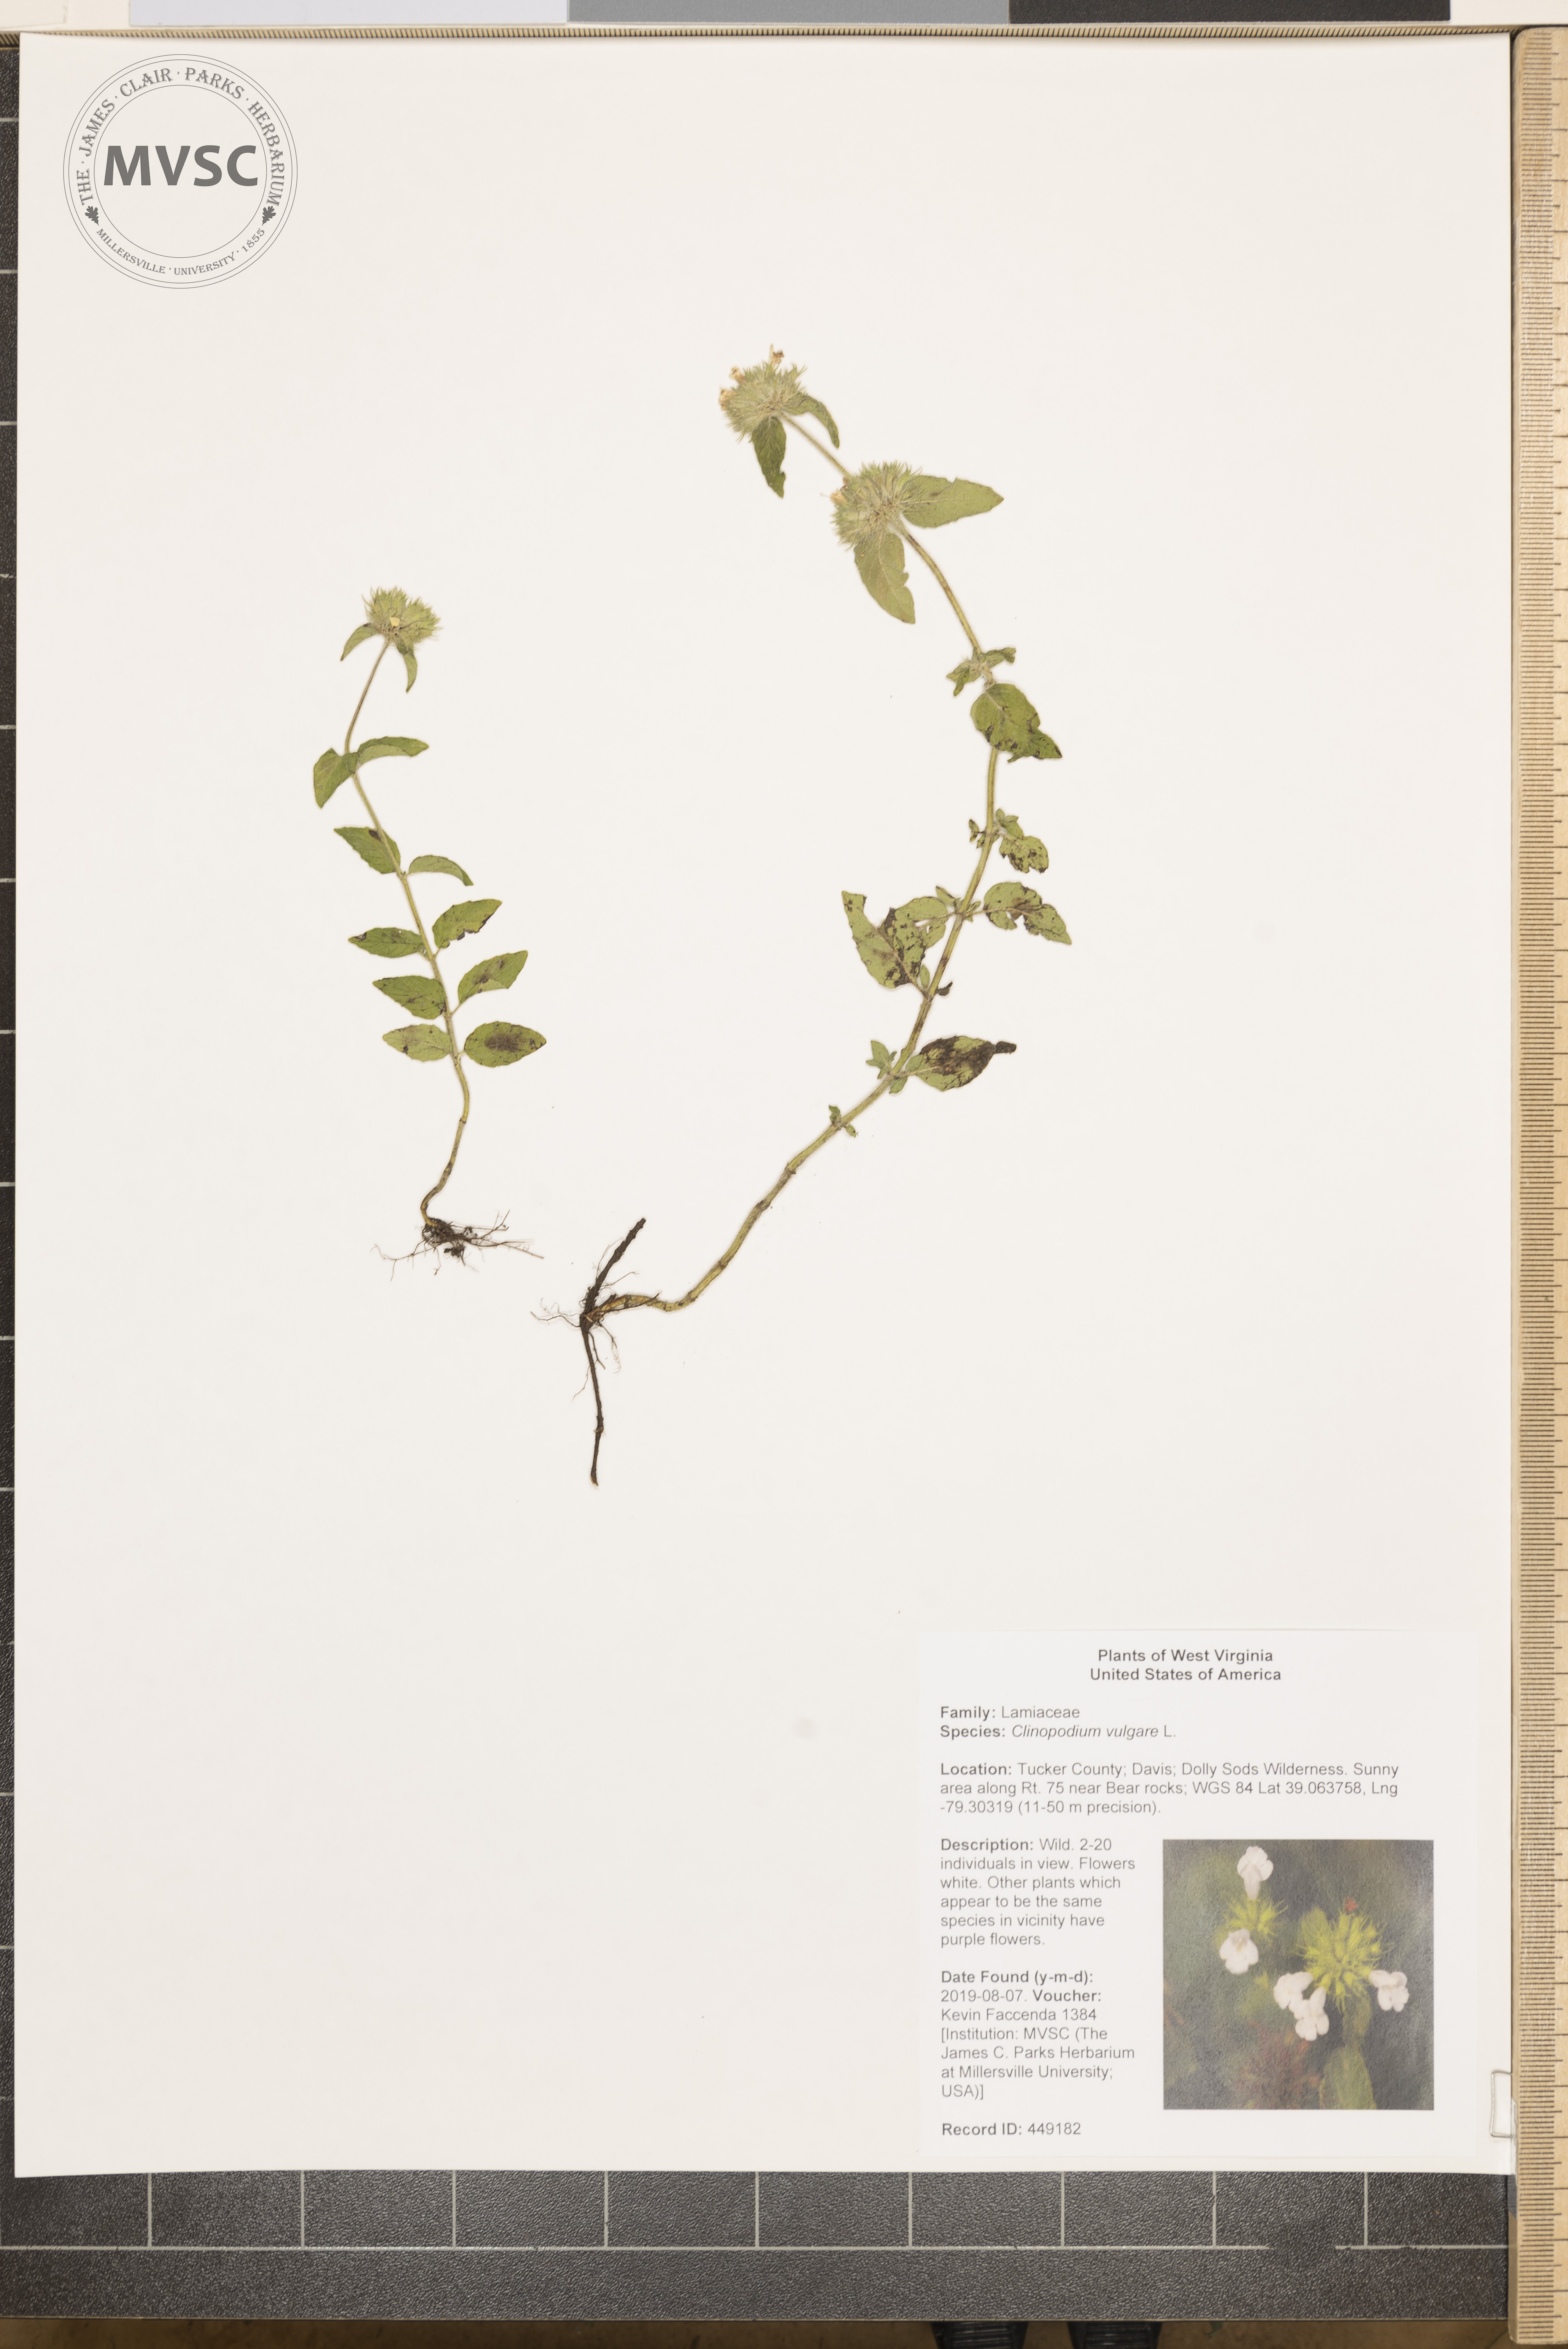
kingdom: Plantae
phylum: Tracheophyta
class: Magnoliopsida
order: Lamiales
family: Lamiaceae
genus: Clinopodium
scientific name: Clinopodium vulgare
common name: Wild basil
